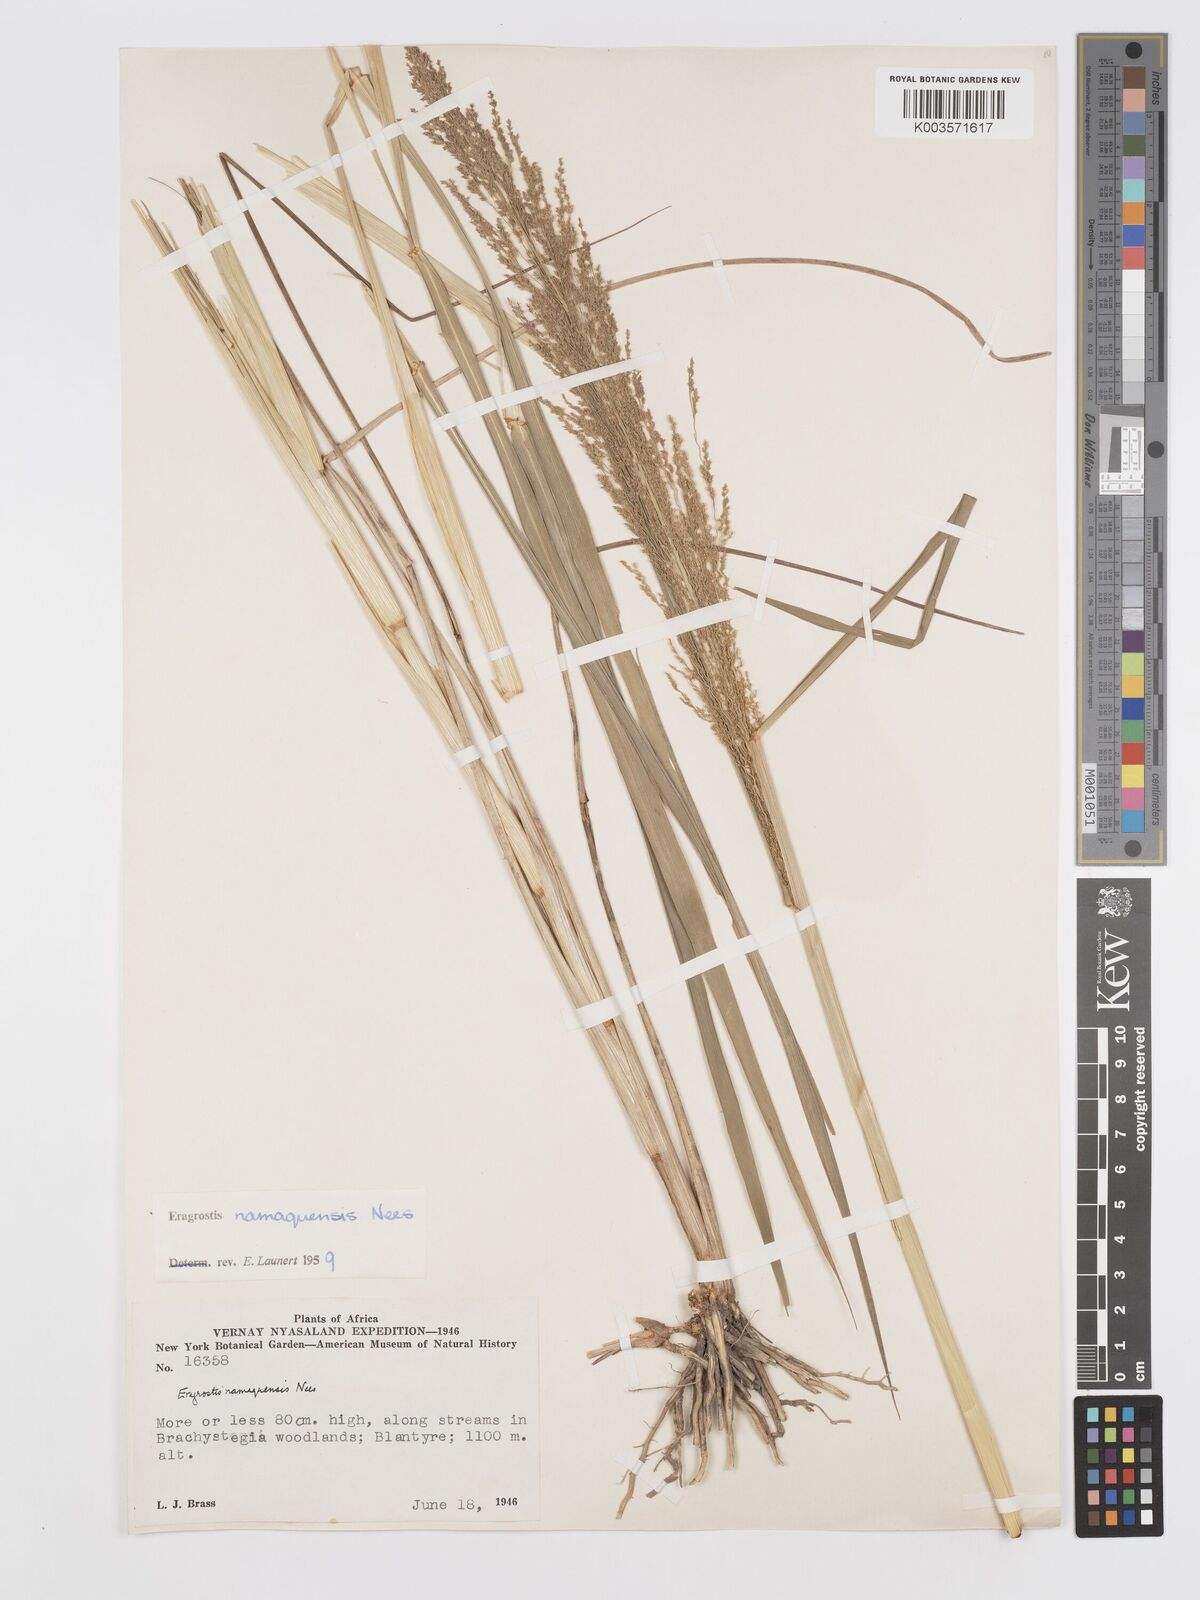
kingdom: Plantae
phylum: Tracheophyta
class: Liliopsida
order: Poales
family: Poaceae
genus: Eragrostis
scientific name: Eragrostis japonica
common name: Pond lovegrass
